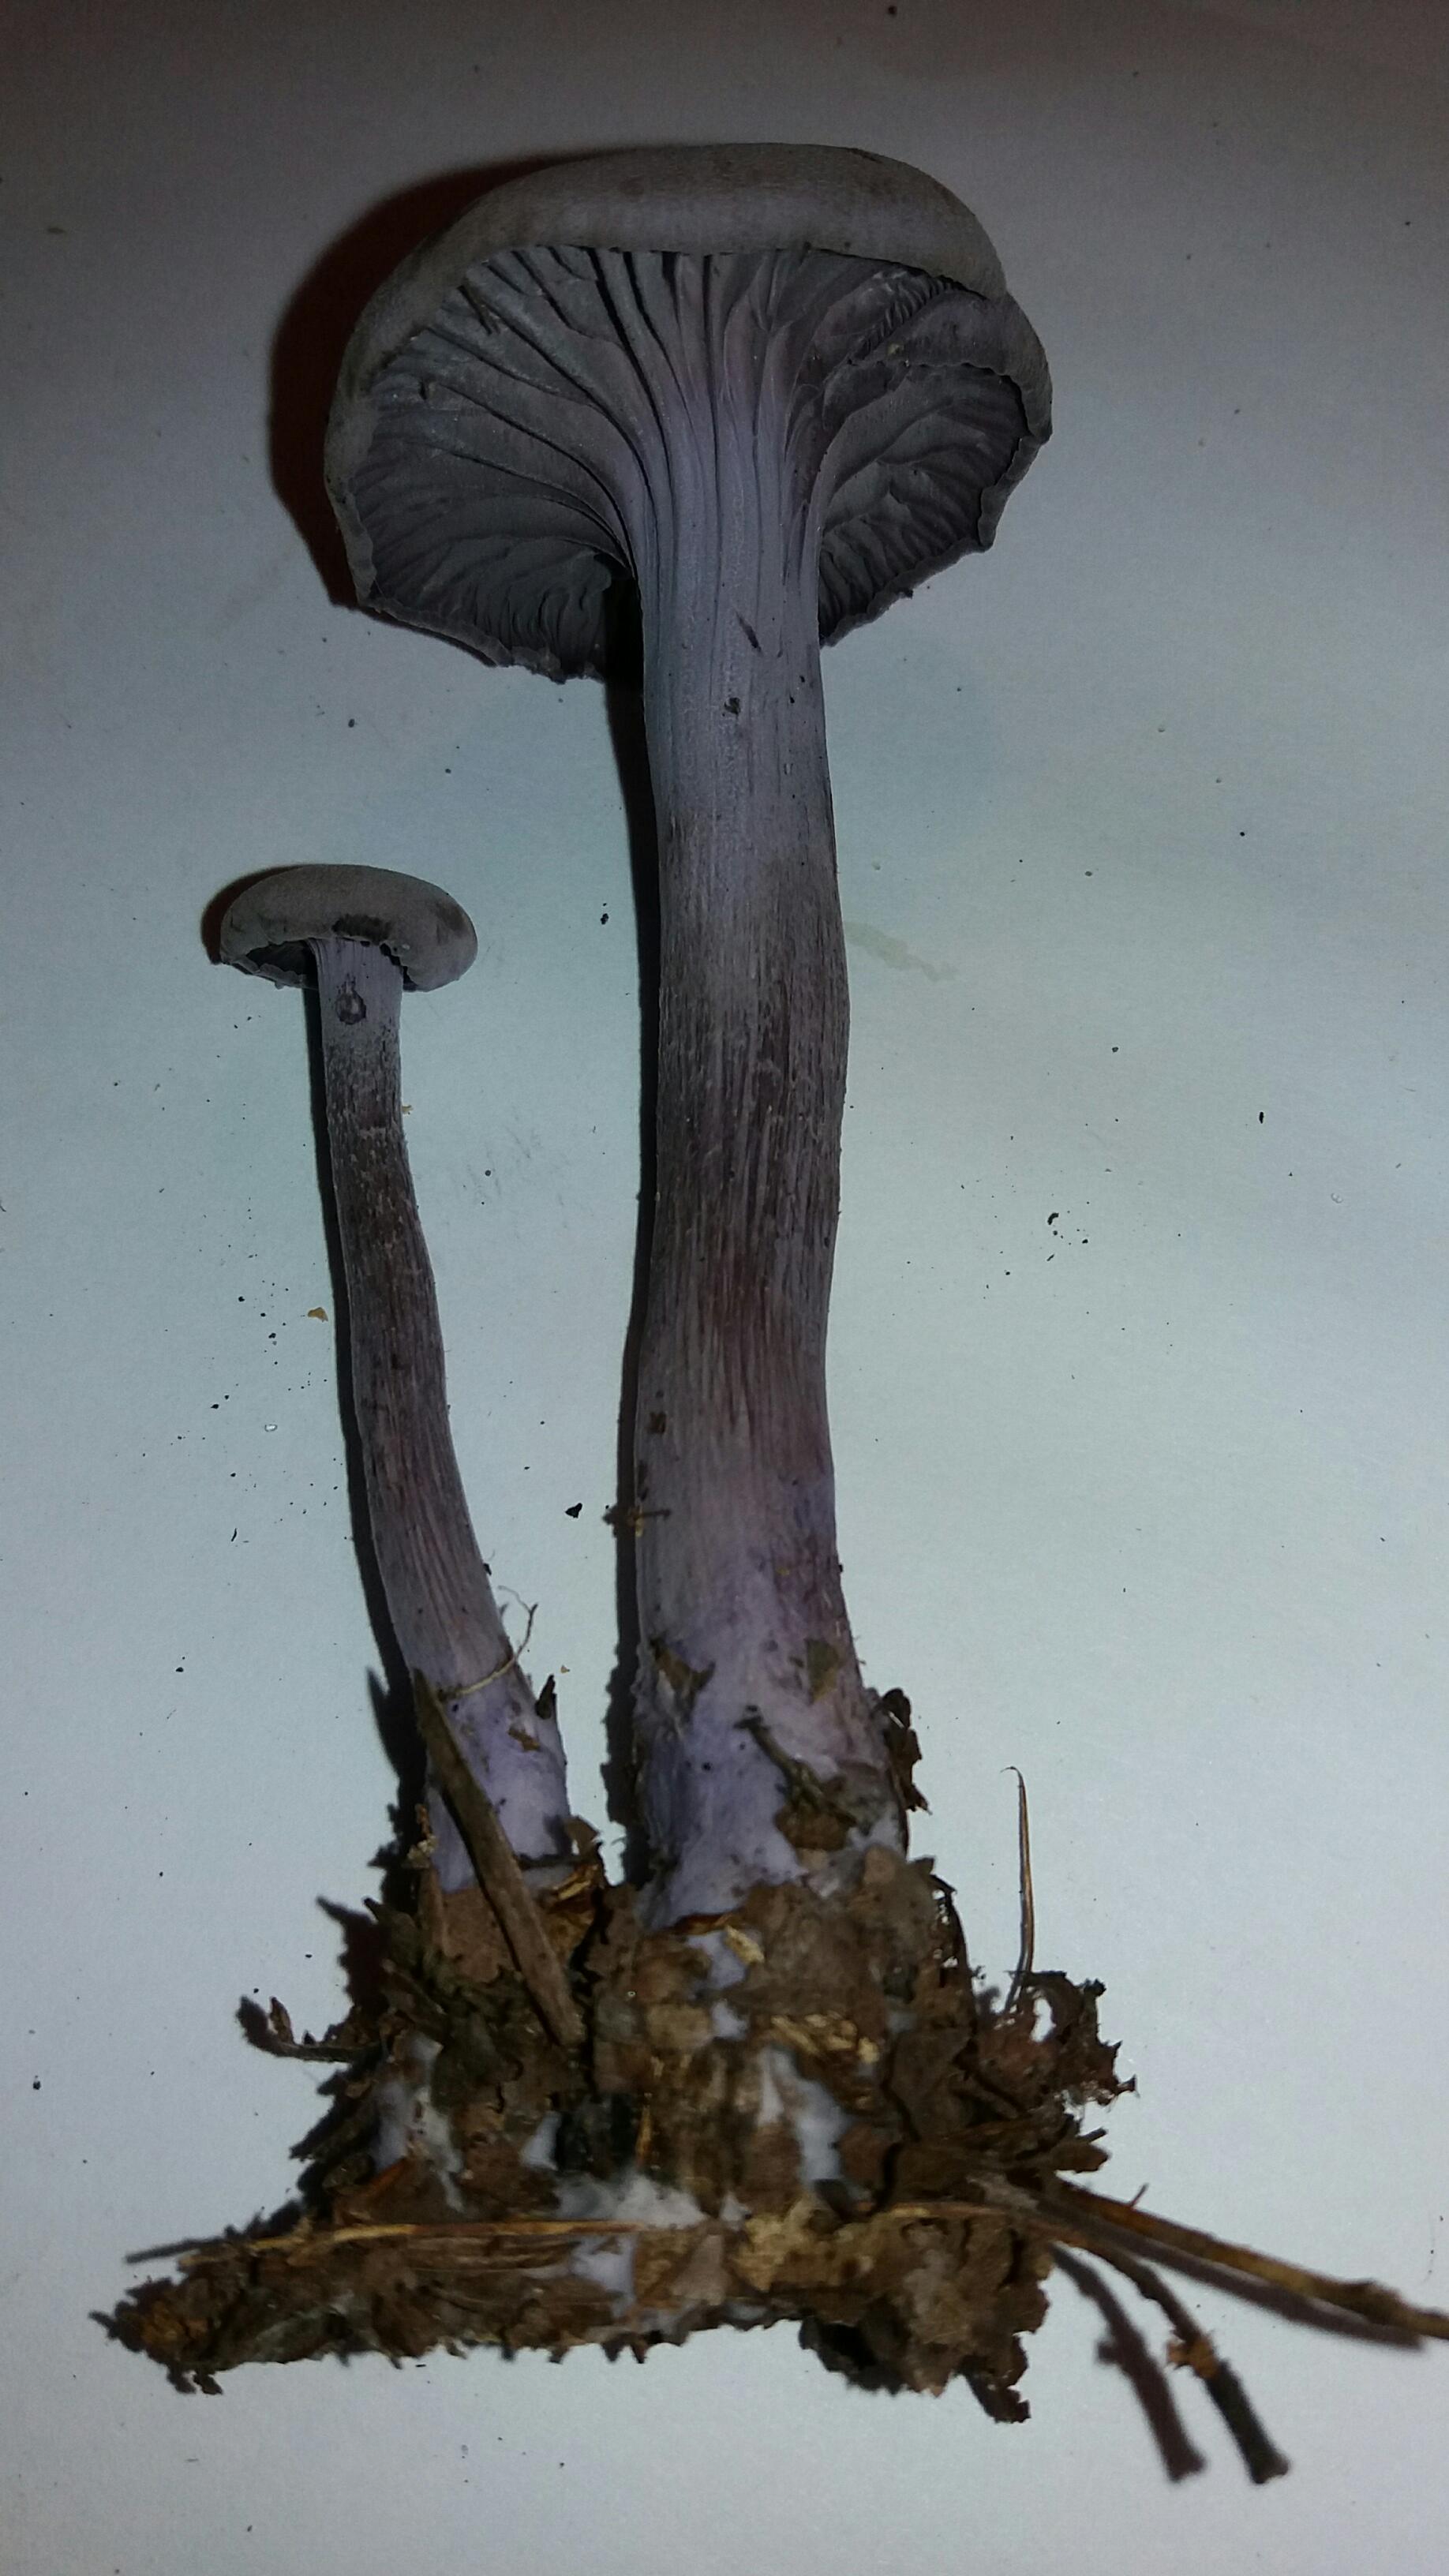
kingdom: Fungi
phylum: Basidiomycota
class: Agaricomycetes
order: Agaricales
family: Hydnangiaceae
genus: Laccaria
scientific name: Laccaria amethystina
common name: violet ametysthat
